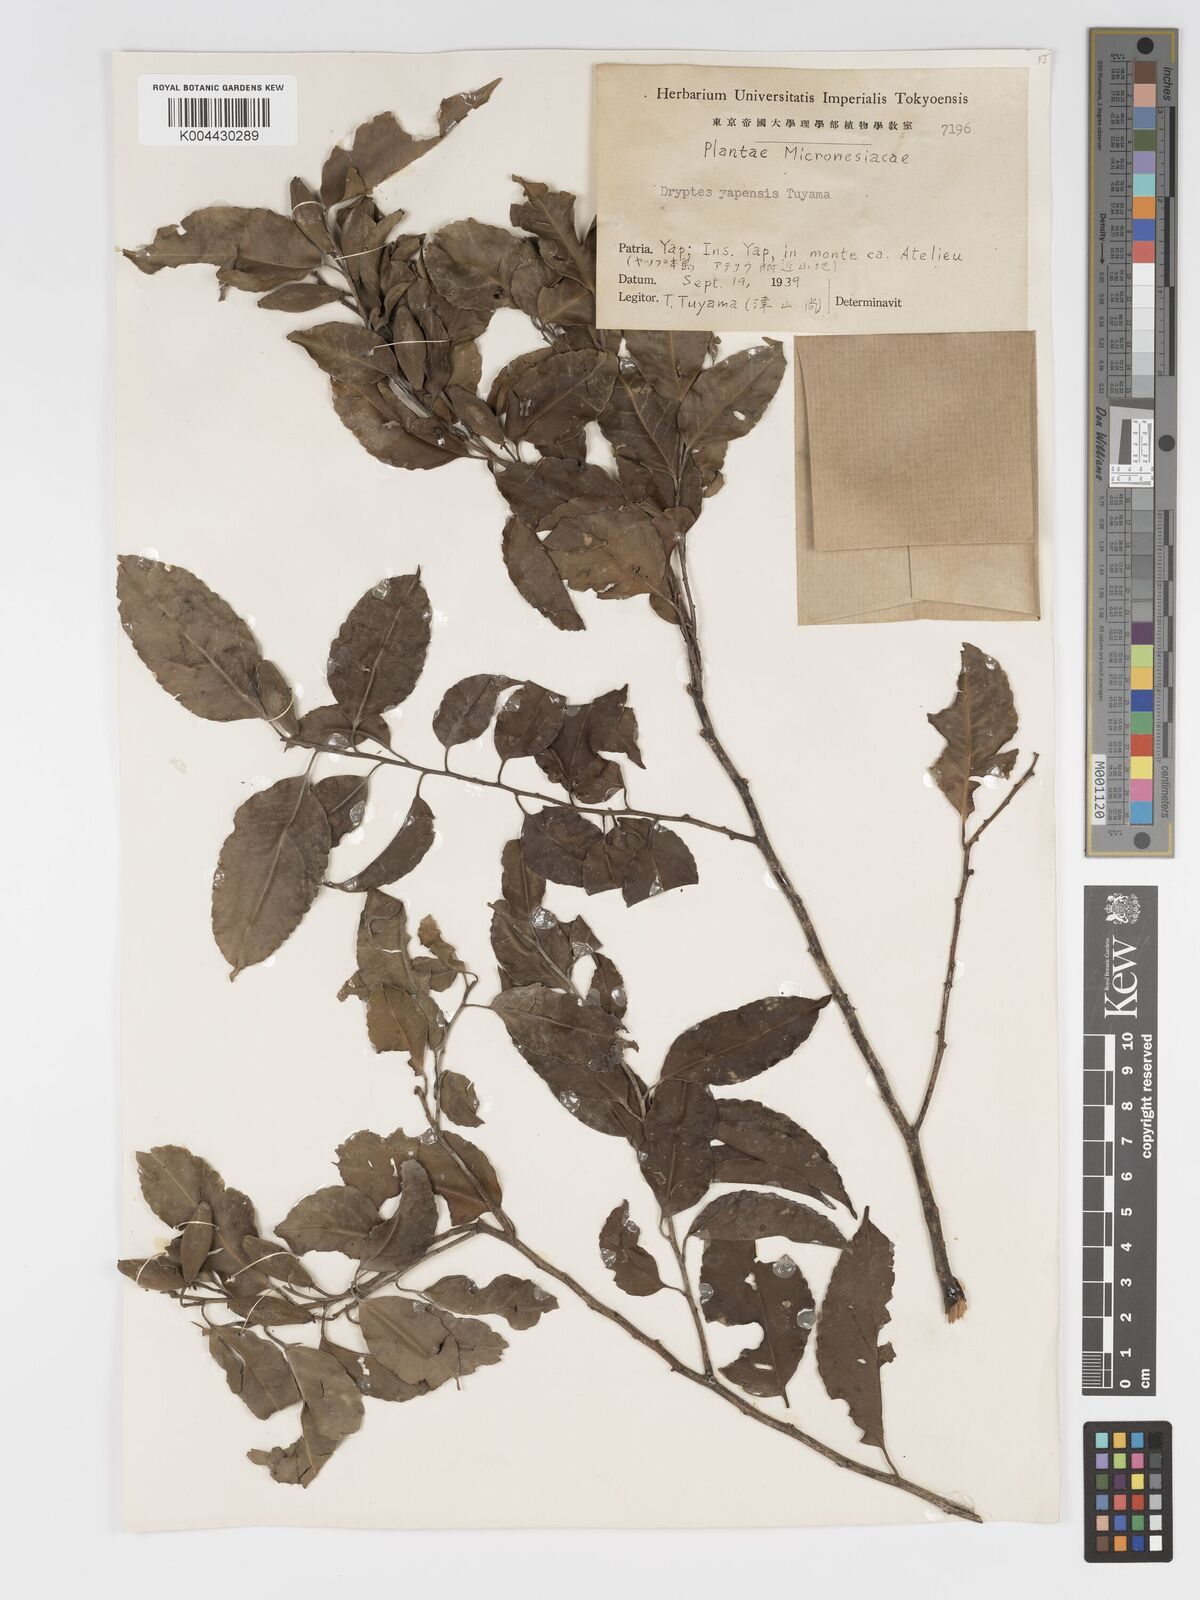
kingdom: Plantae
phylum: Tracheophyta
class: Magnoliopsida
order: Malpighiales
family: Putranjivaceae
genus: Drypetes
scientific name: Drypetes yapensis
